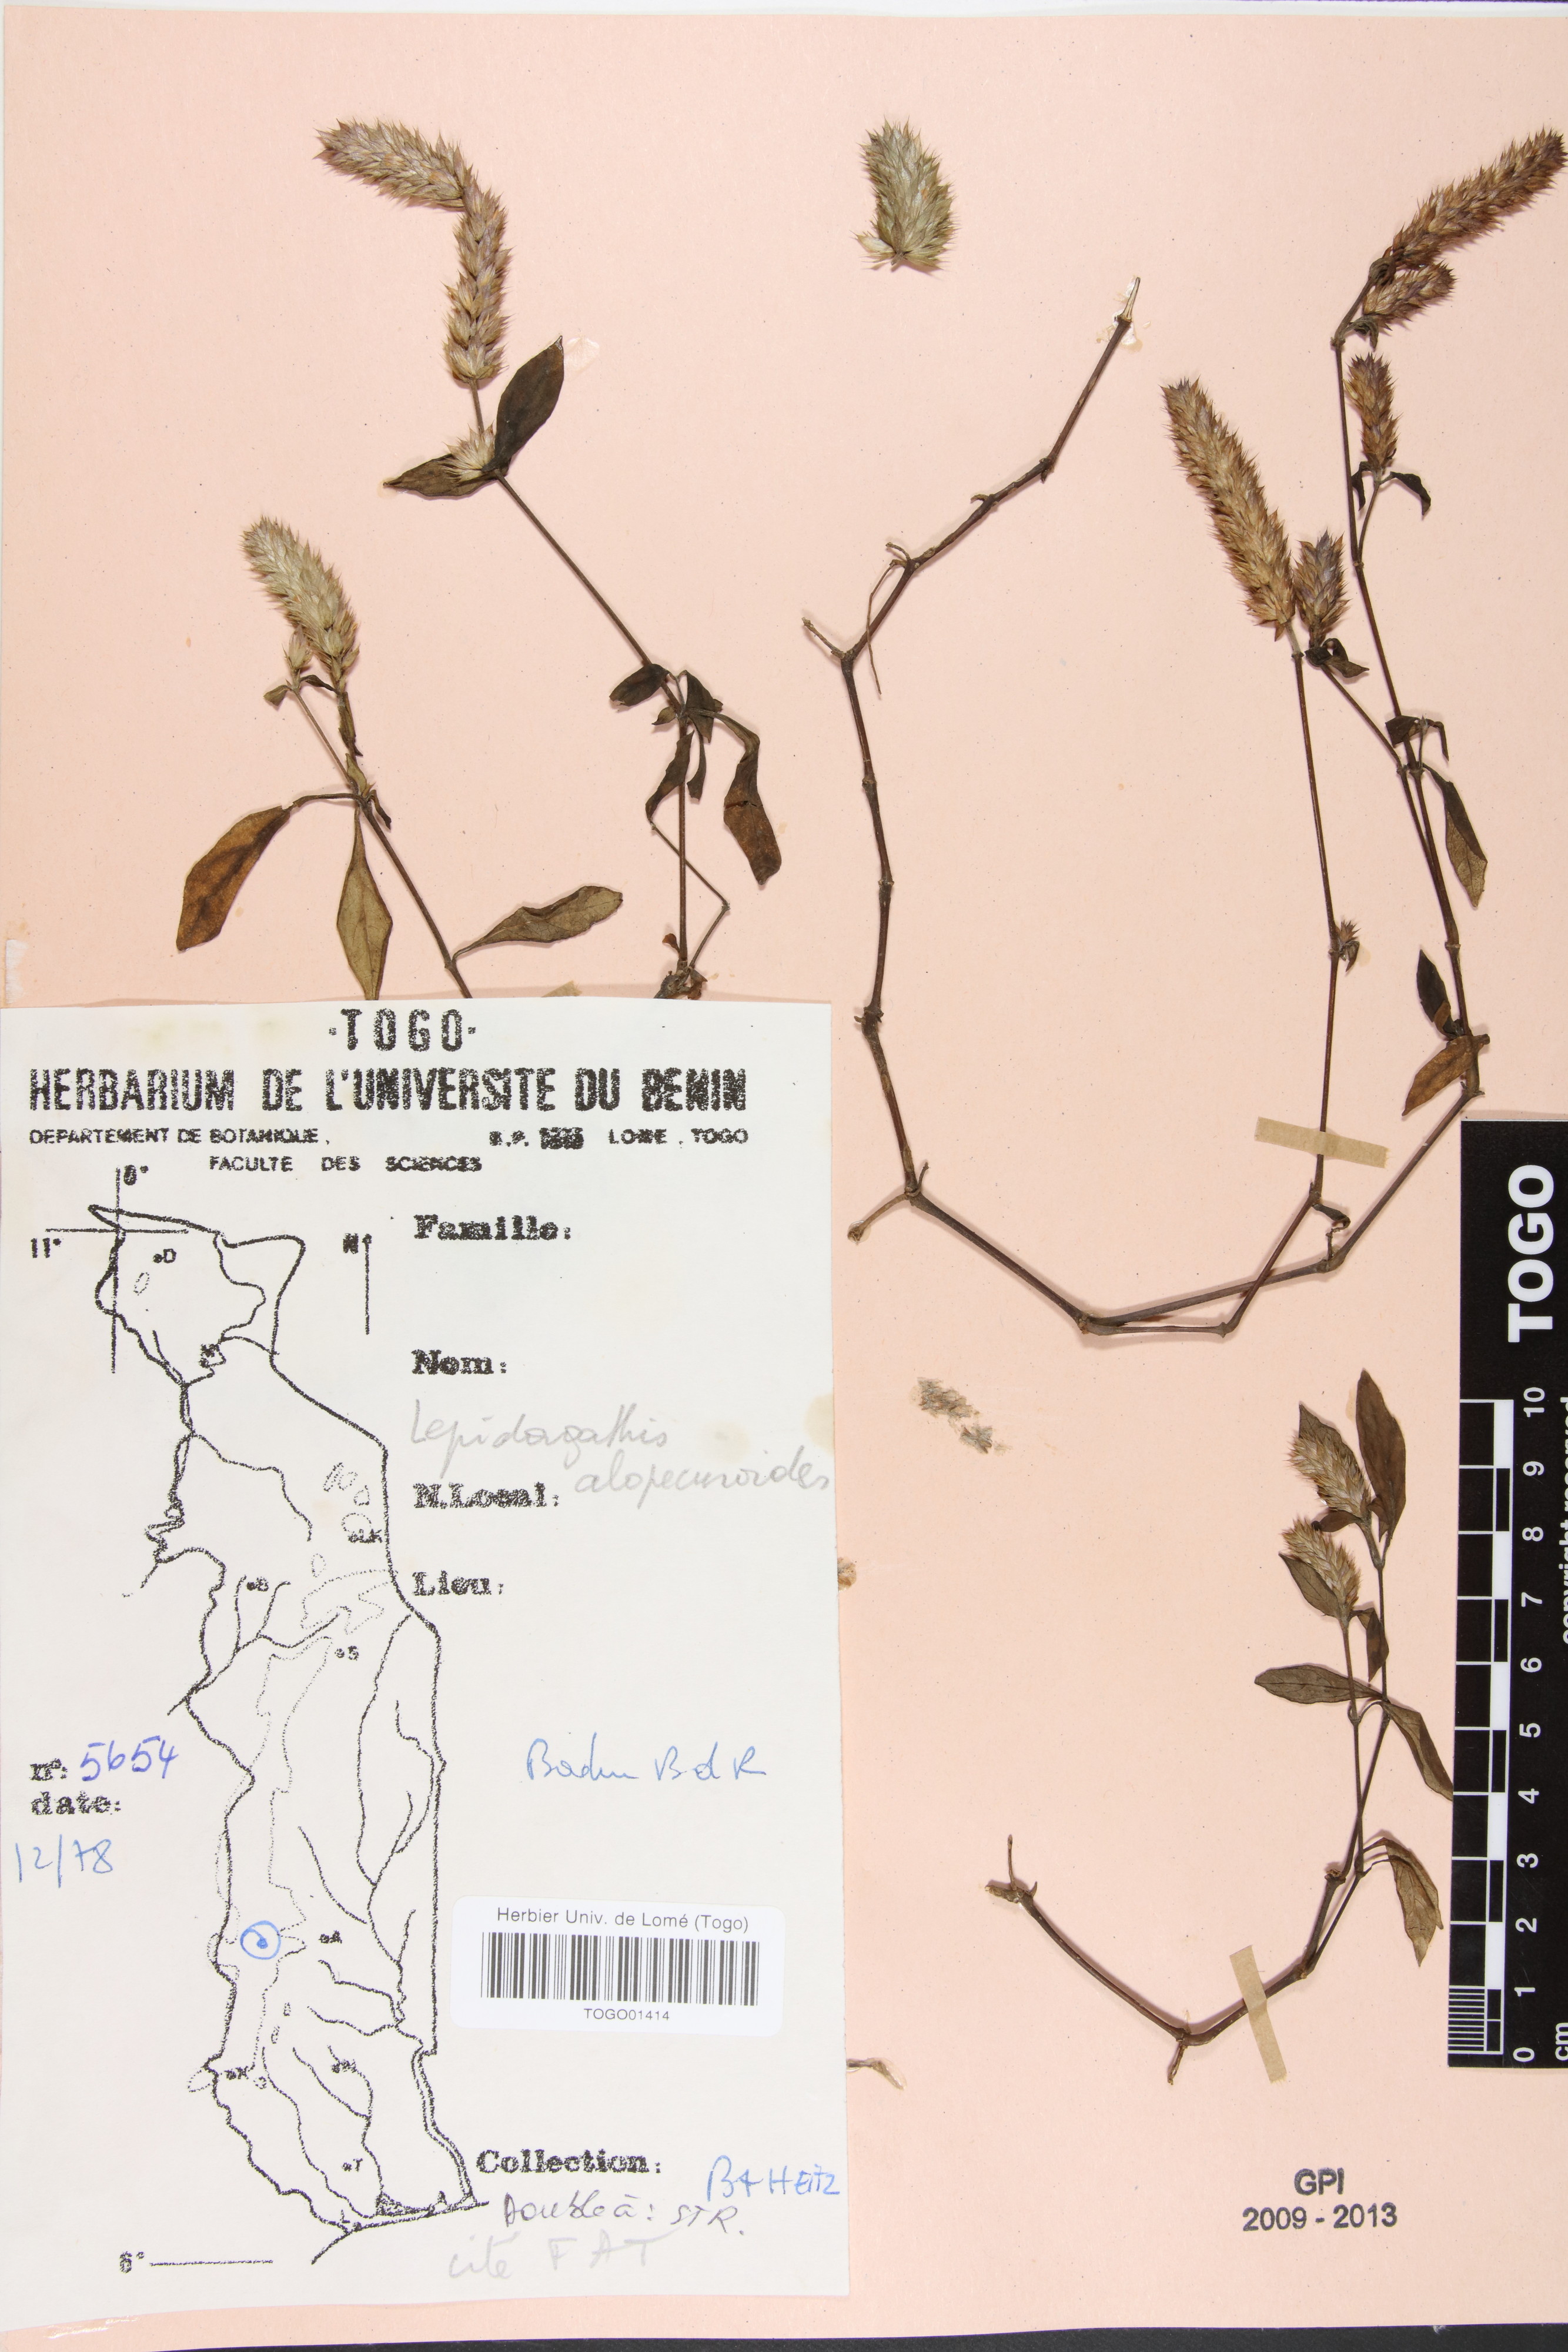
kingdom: Plantae
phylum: Tracheophyta
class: Magnoliopsida
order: Lamiales
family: Acanthaceae
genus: Lepidagathis
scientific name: Lepidagathis alopecuroidea
